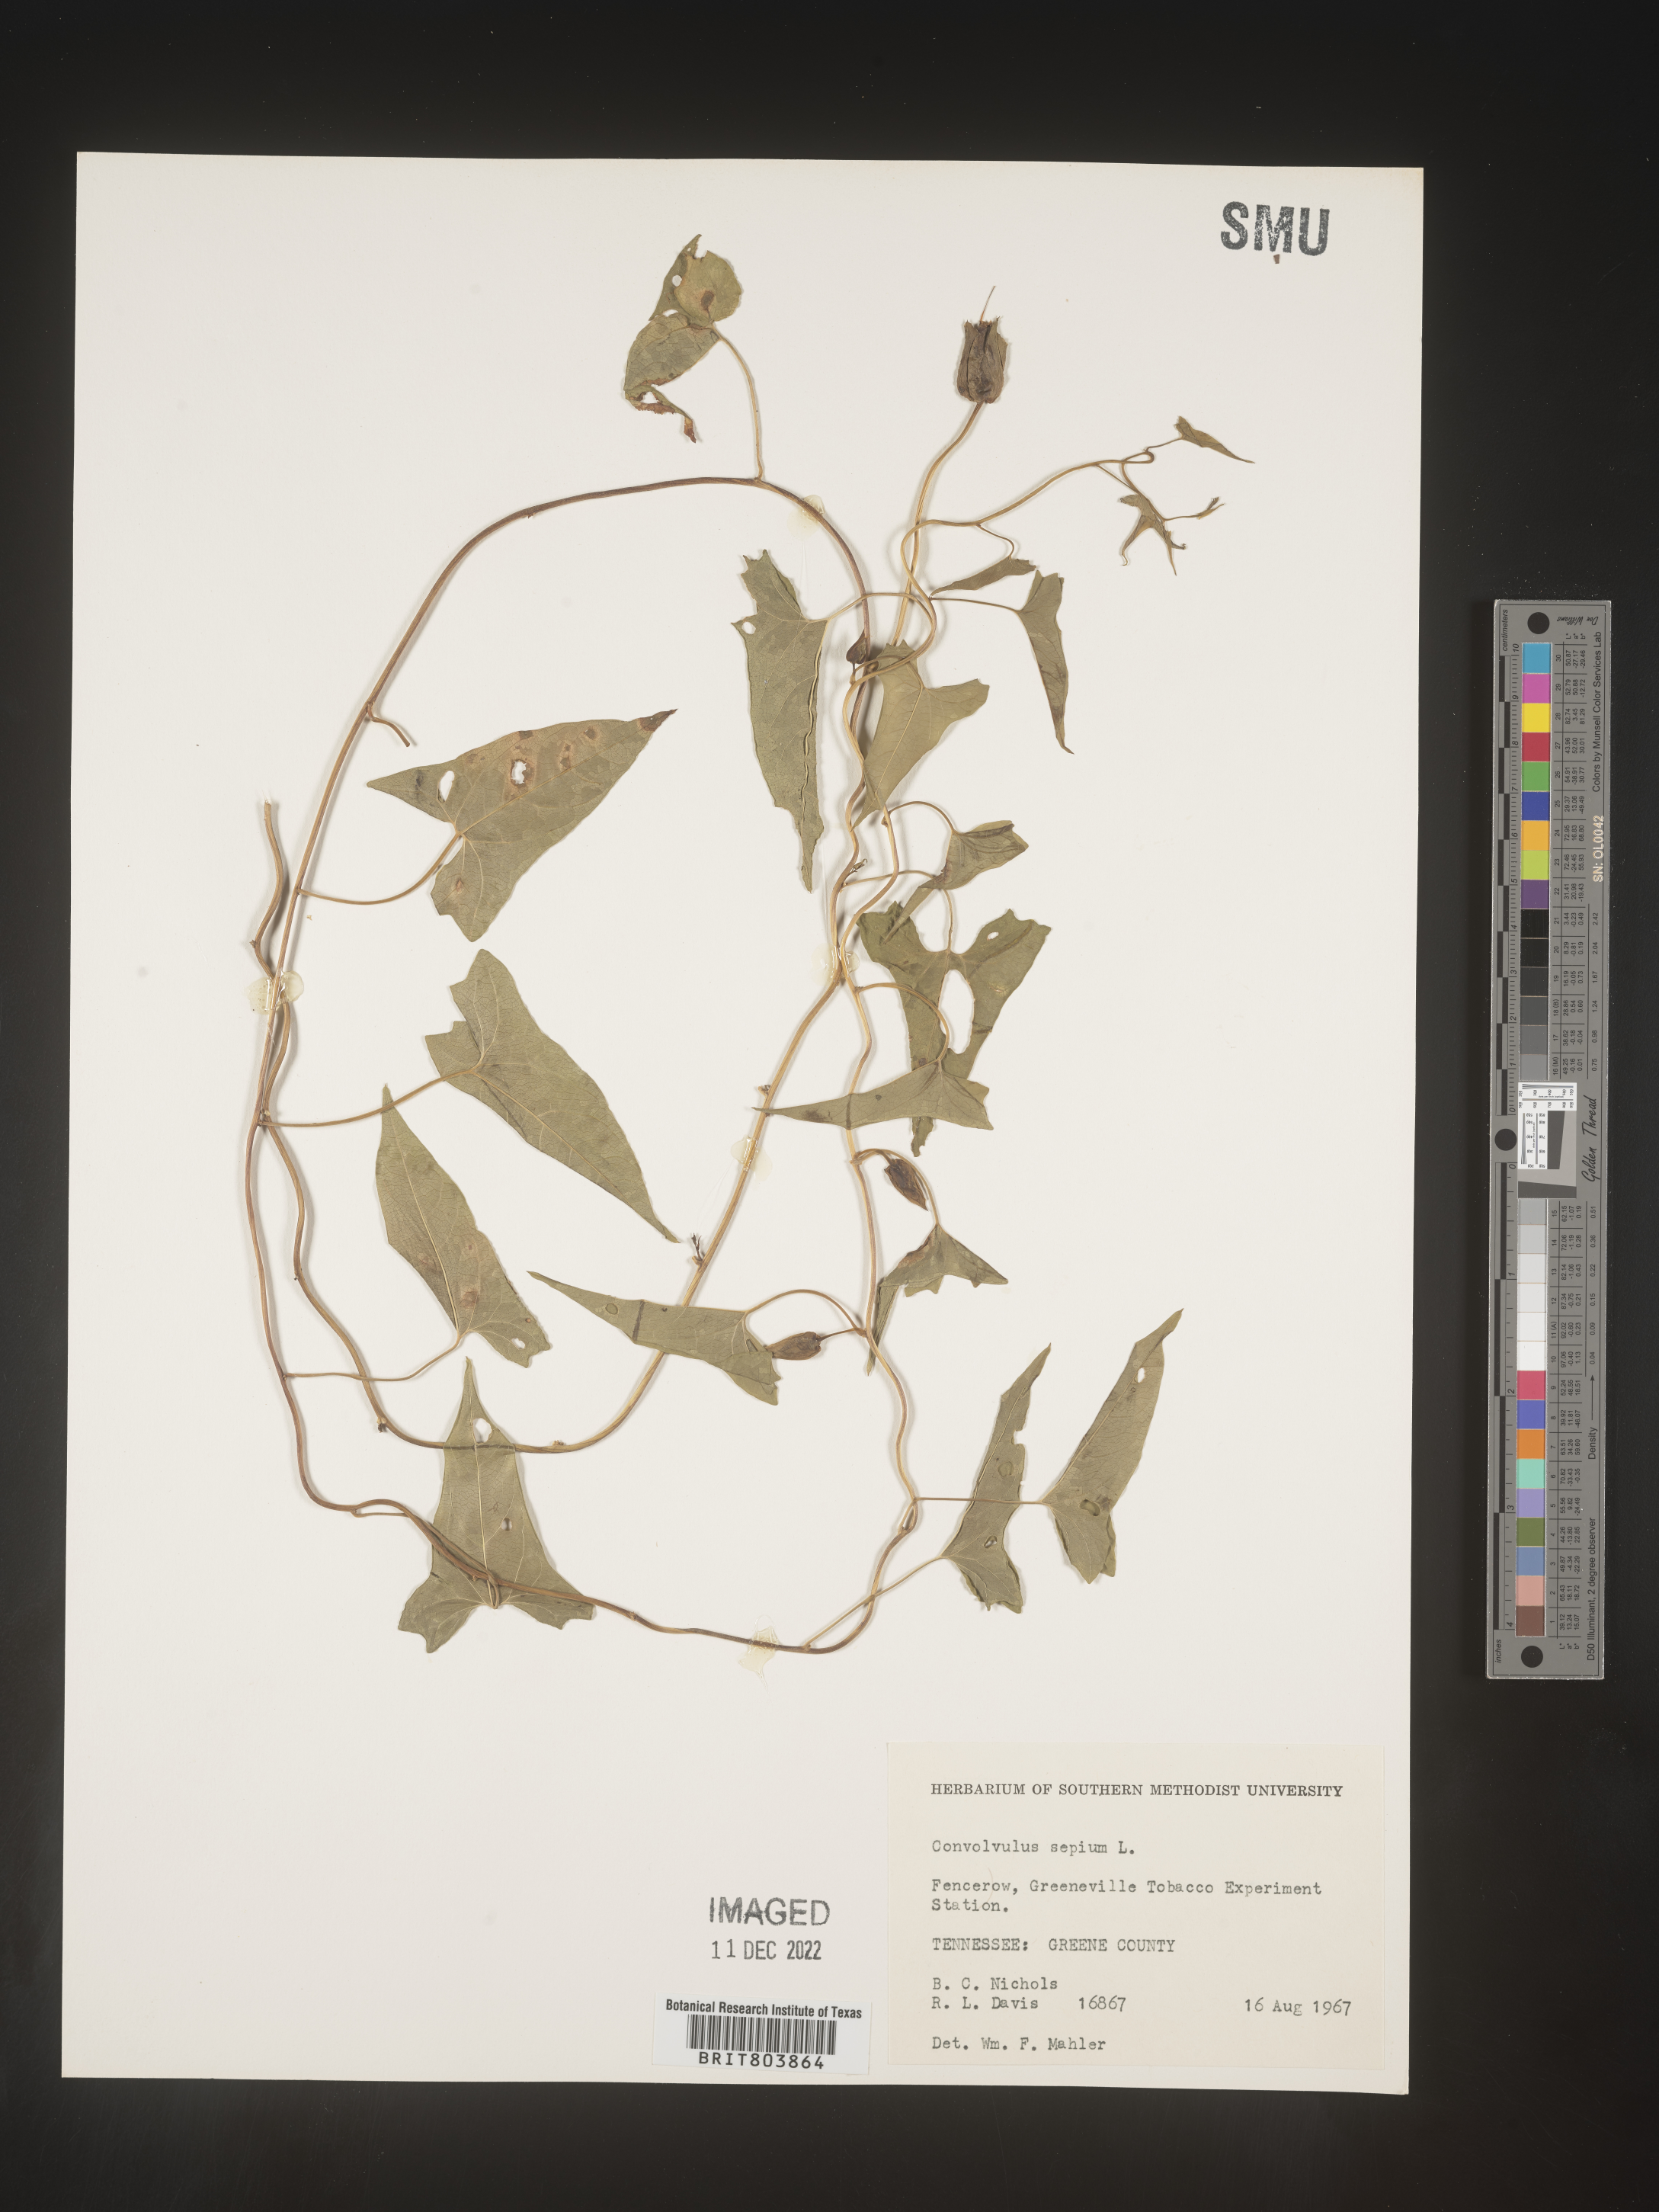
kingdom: Plantae
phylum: Tracheophyta
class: Magnoliopsida
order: Solanales
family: Convolvulaceae
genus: Calystegia
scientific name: Calystegia sepium
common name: Hedge bindweed
